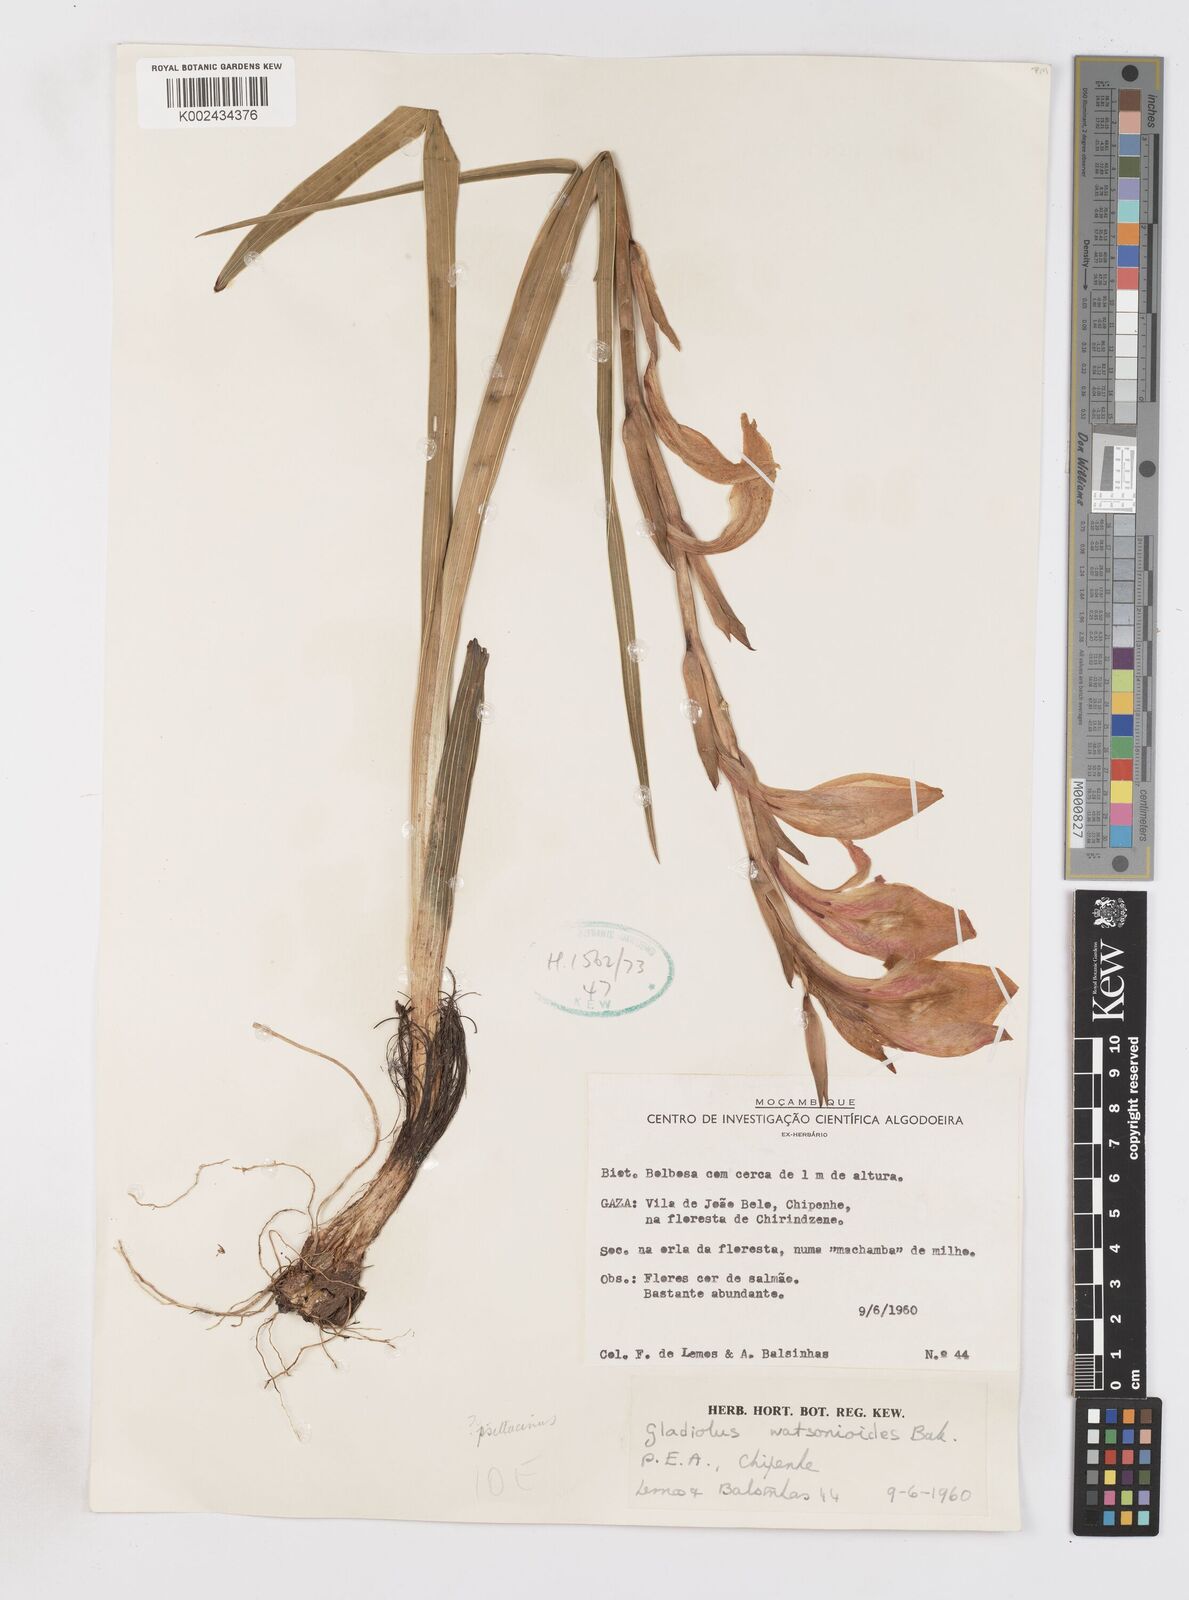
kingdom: Plantae
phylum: Tracheophyta
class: Liliopsida
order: Asparagales
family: Iridaceae
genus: Gladiolus
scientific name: Gladiolus dalenii
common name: Cornflag
